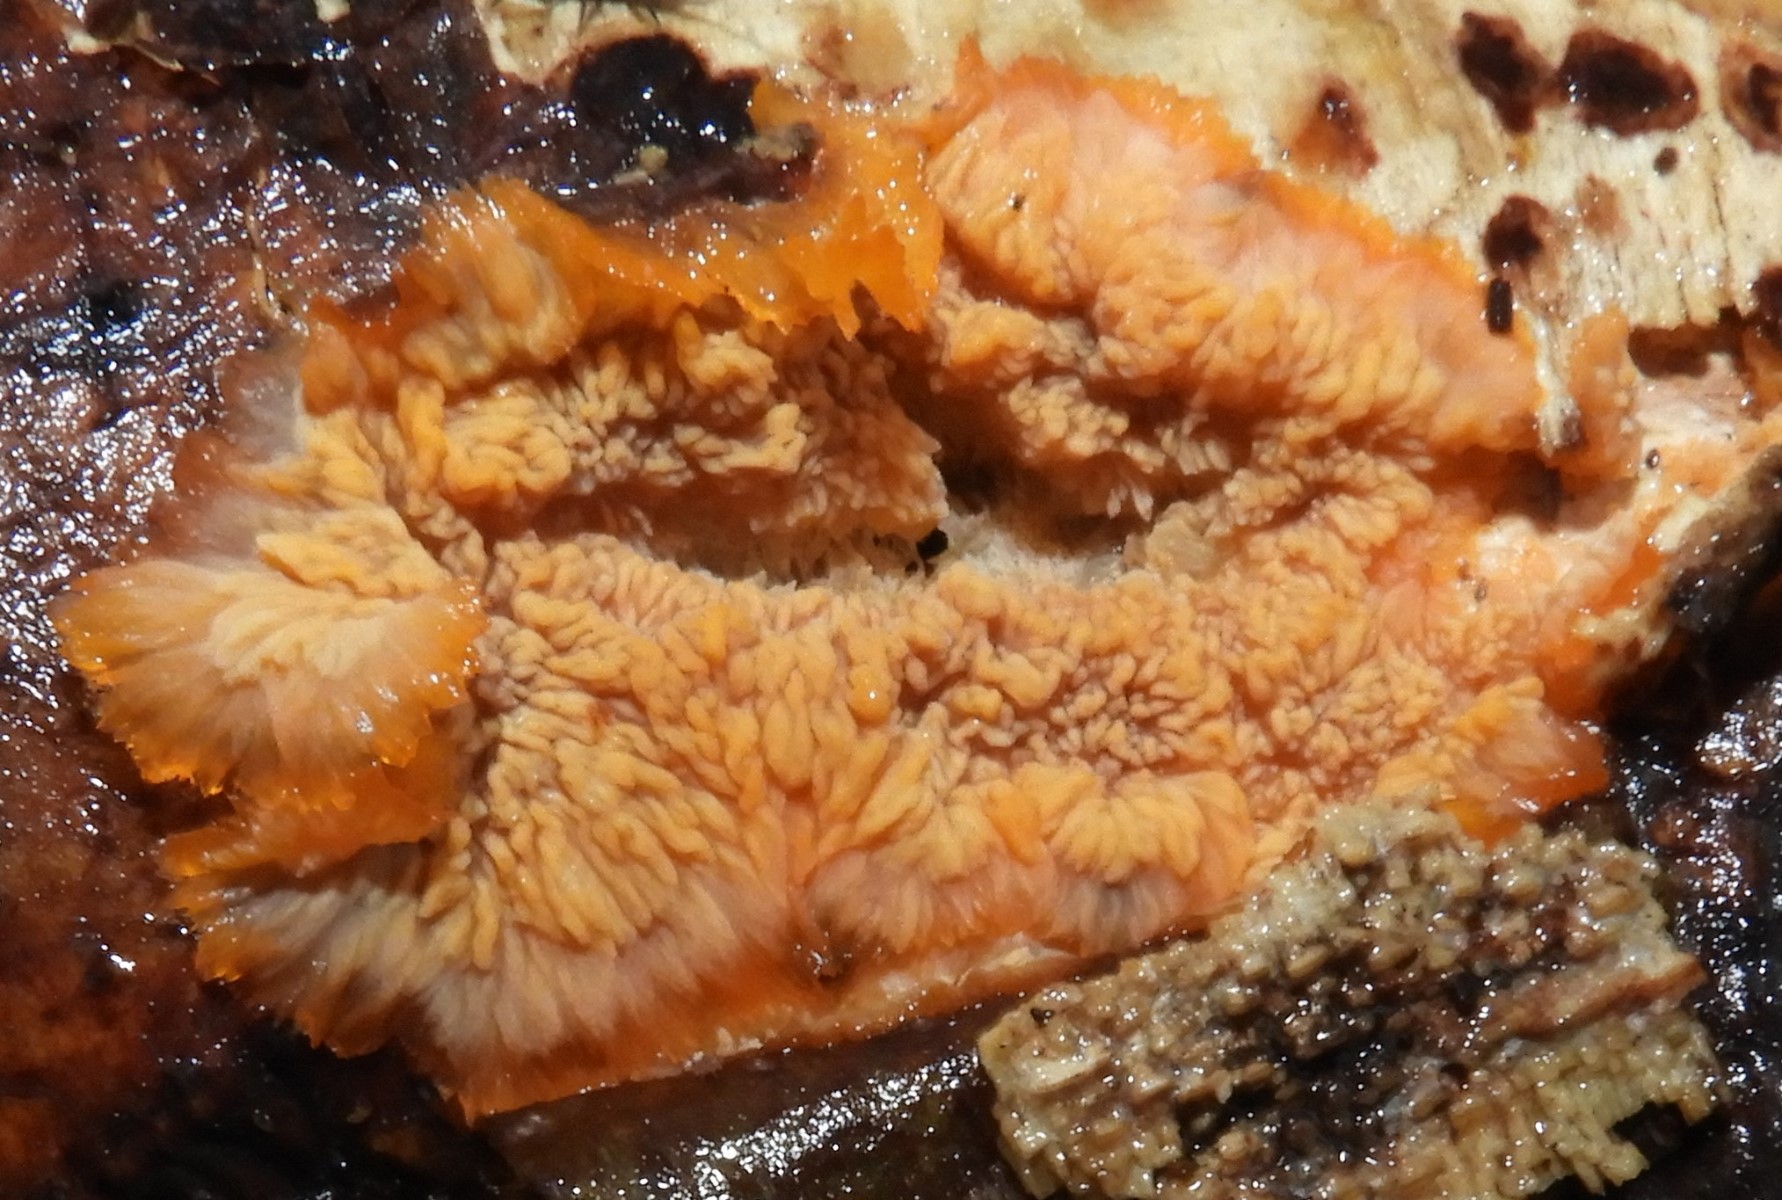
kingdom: Fungi
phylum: Basidiomycota
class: Agaricomycetes
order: Polyporales
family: Meruliaceae
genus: Phlebia
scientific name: Phlebia radiata
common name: stråle-åresvamp
